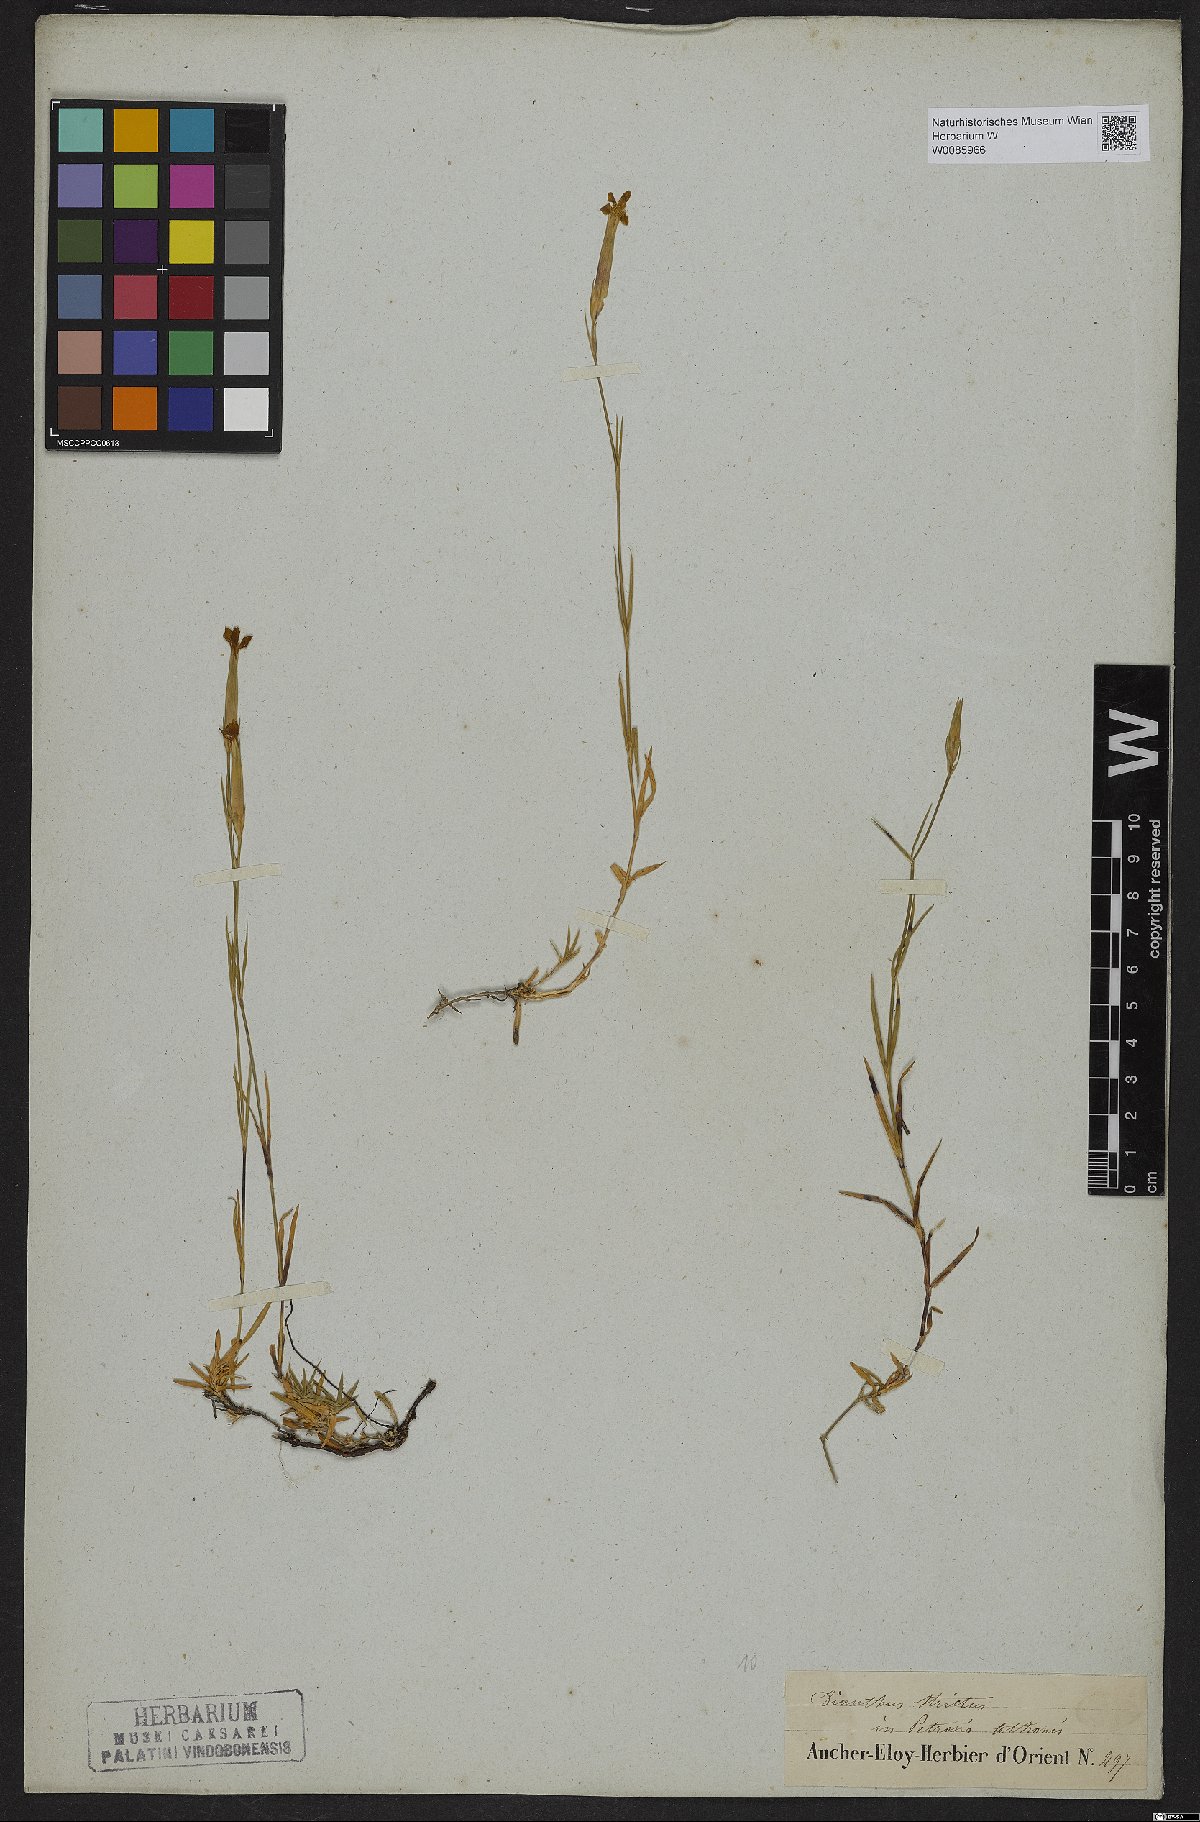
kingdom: Plantae
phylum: Tracheophyta
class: Magnoliopsida
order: Caryophyllales
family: Caryophyllaceae
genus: Dianthus
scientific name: Dianthus petraeus
